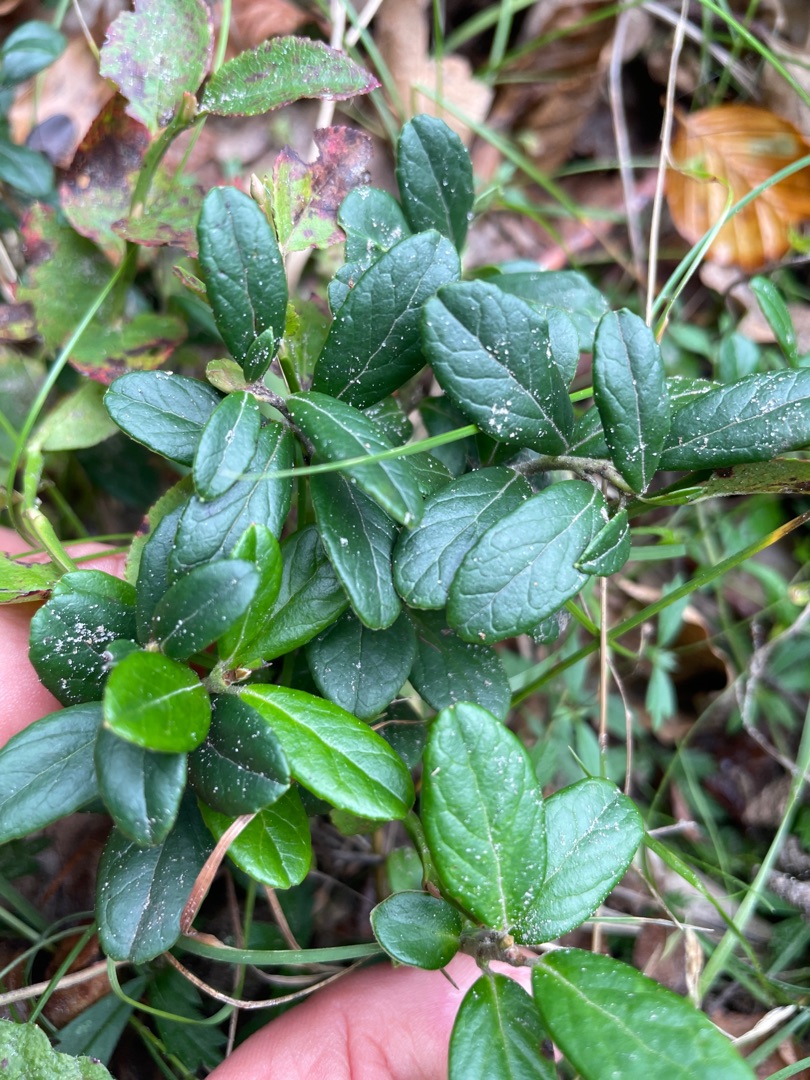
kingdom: Plantae
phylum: Tracheophyta
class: Magnoliopsida
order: Ericales
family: Ericaceae
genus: Vaccinium
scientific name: Vaccinium vitis-idaea
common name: Tyttebær
